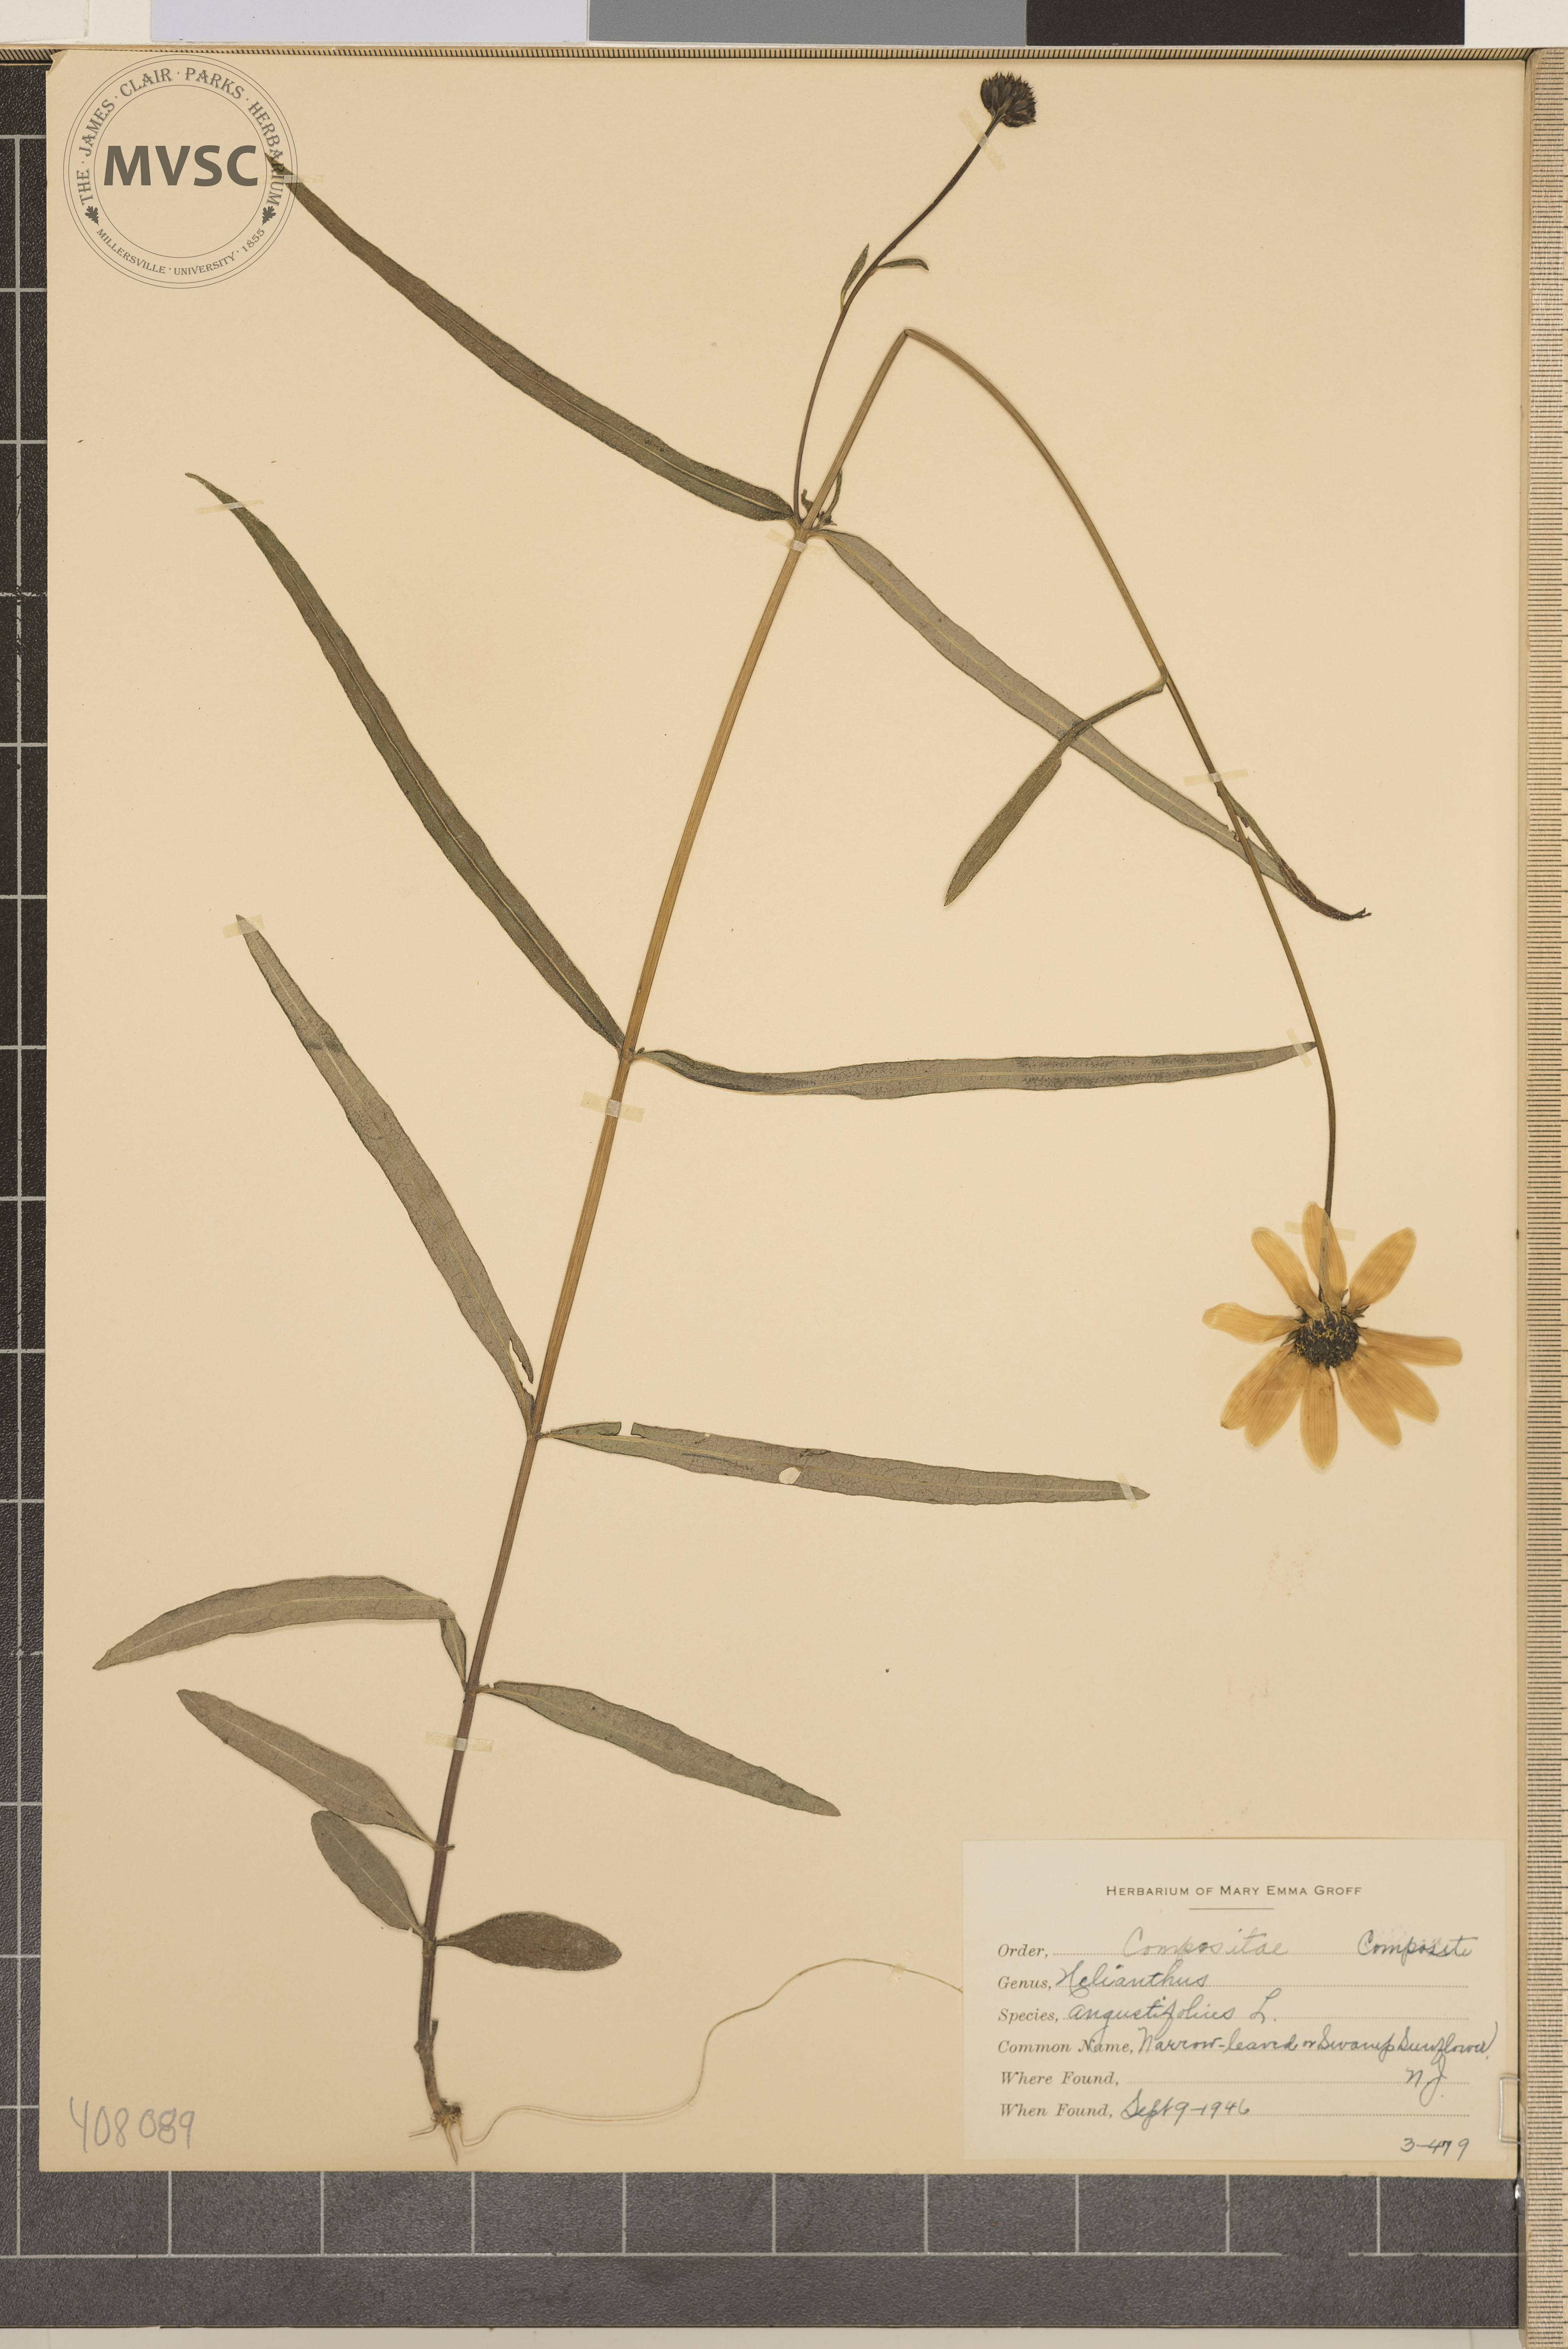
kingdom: Plantae
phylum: Tracheophyta
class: Magnoliopsida
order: Asterales
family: Asteraceae
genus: Helianthus
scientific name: Helianthus angustifolius
